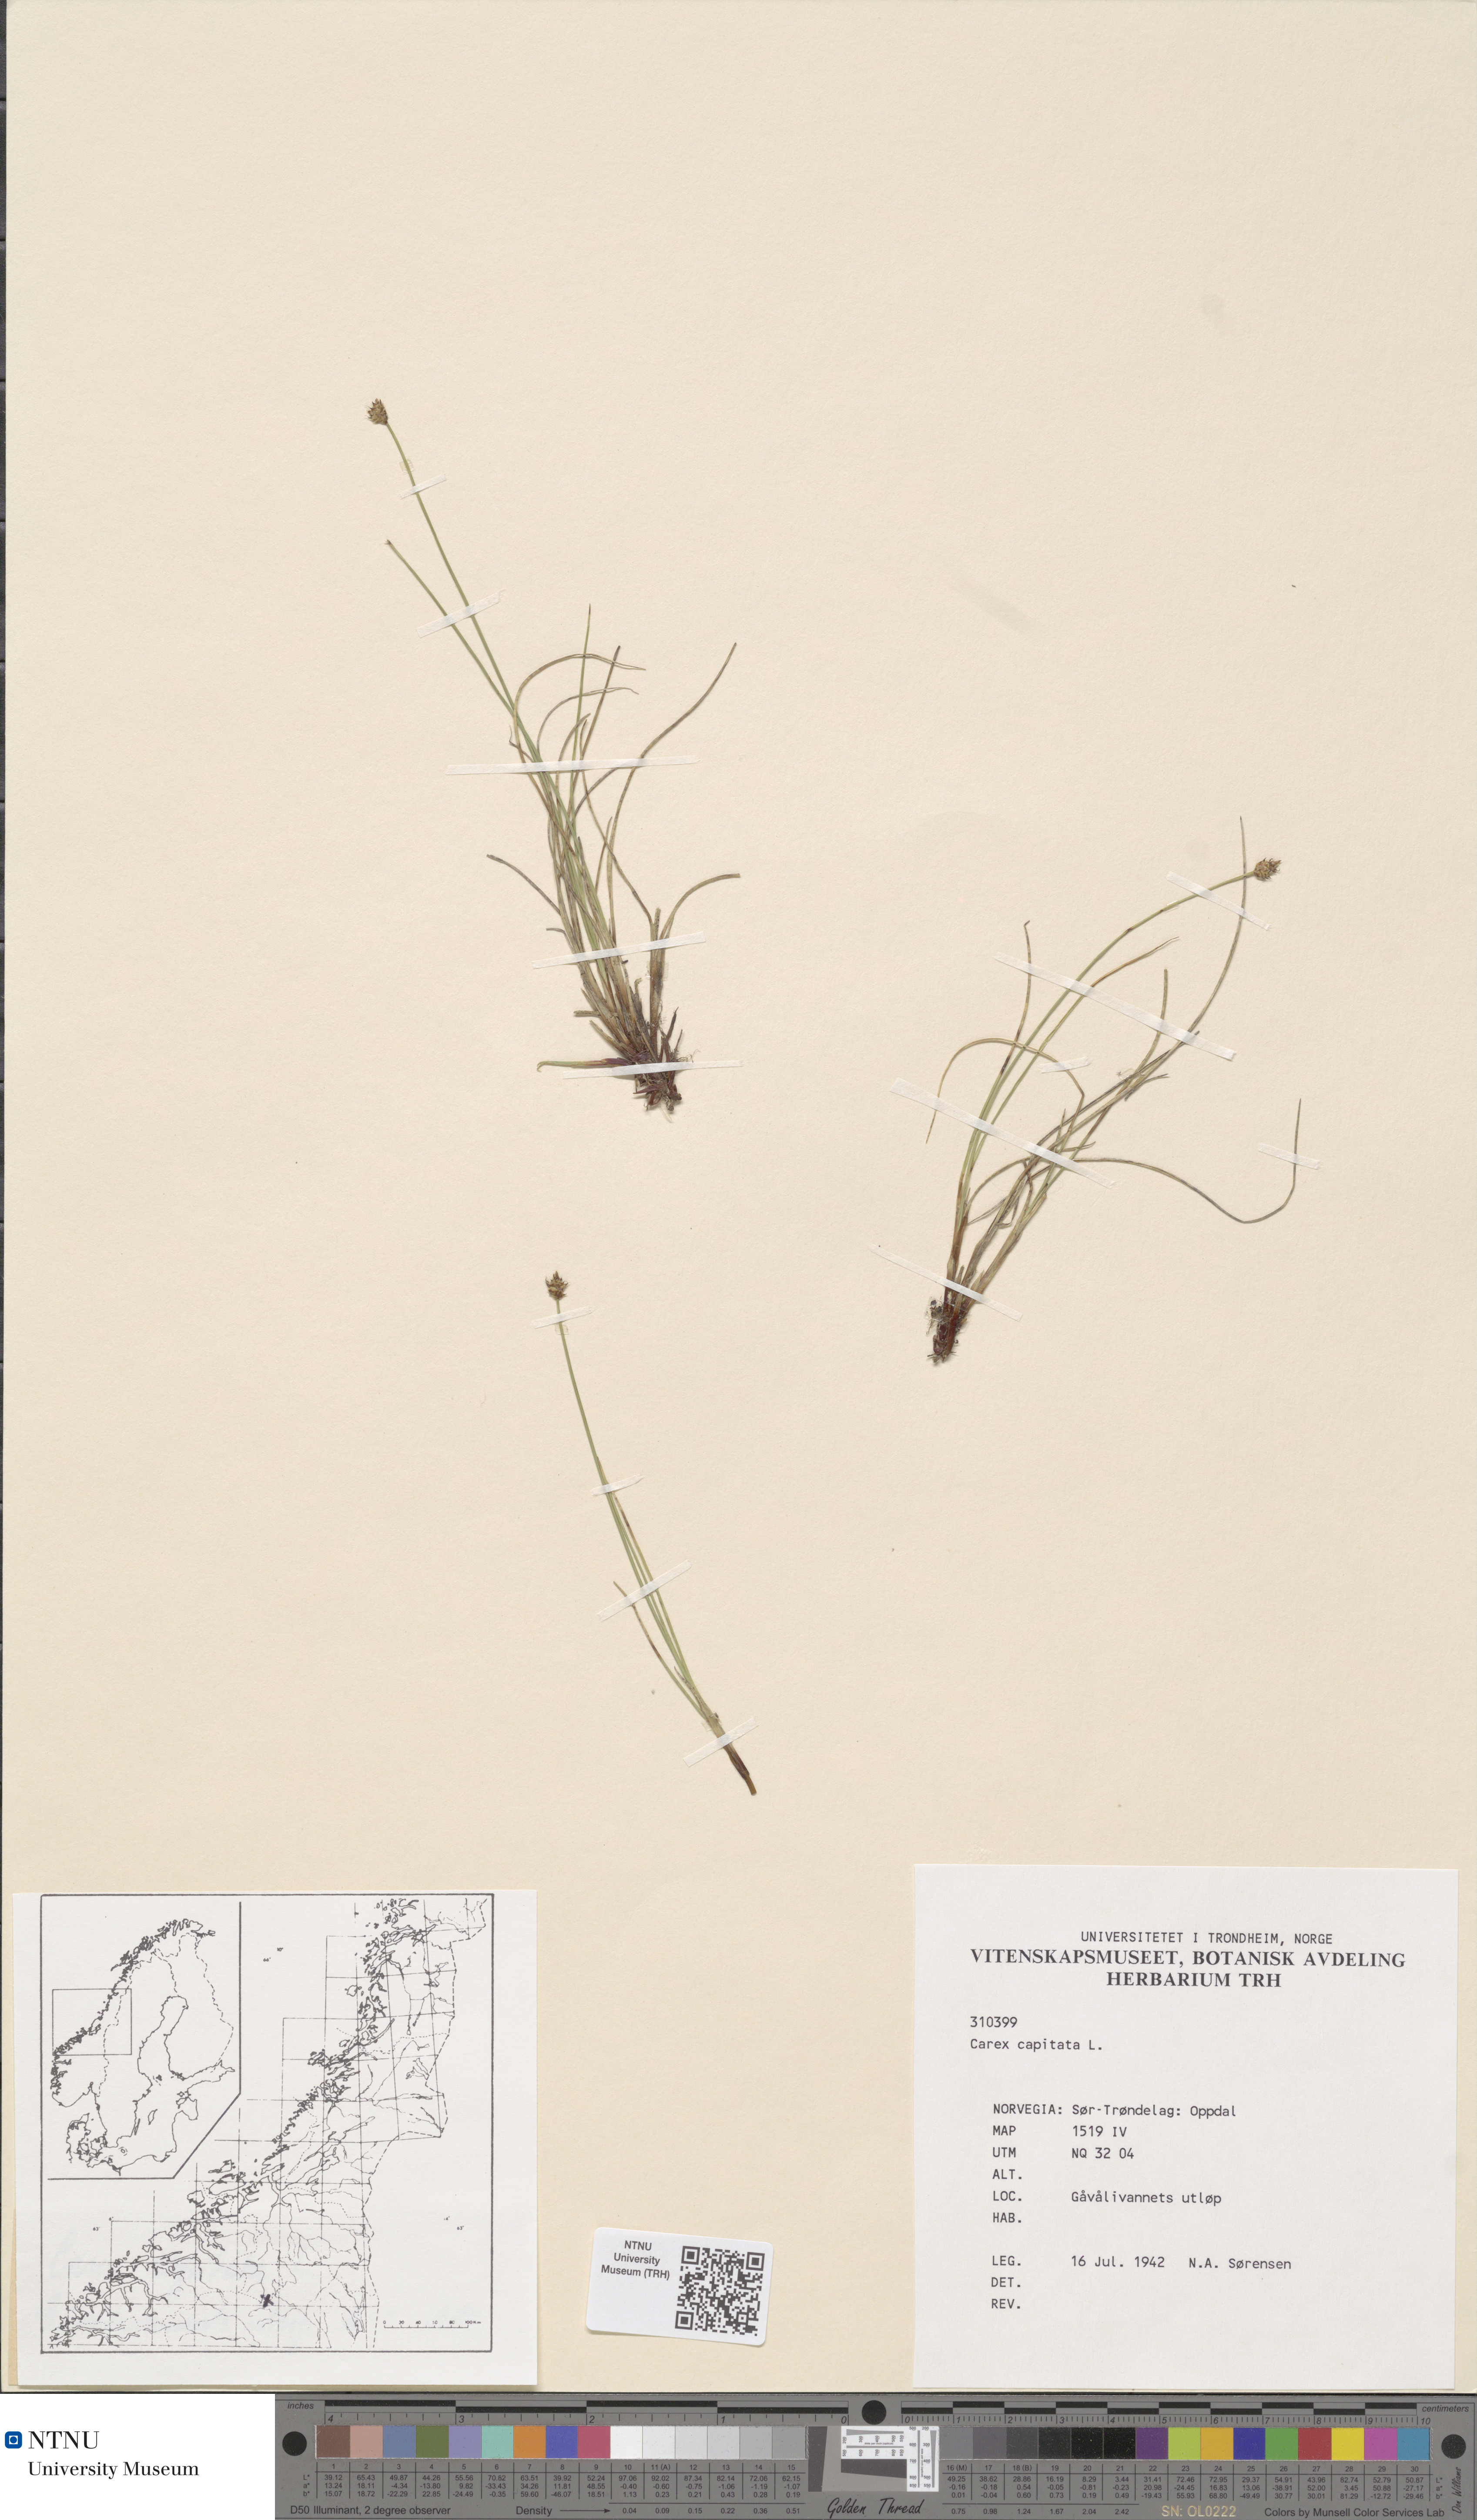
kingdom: Plantae
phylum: Tracheophyta
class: Liliopsida
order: Poales
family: Cyperaceae
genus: Carex
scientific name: Carex norvegica
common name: Close-headed alpine-sedge
